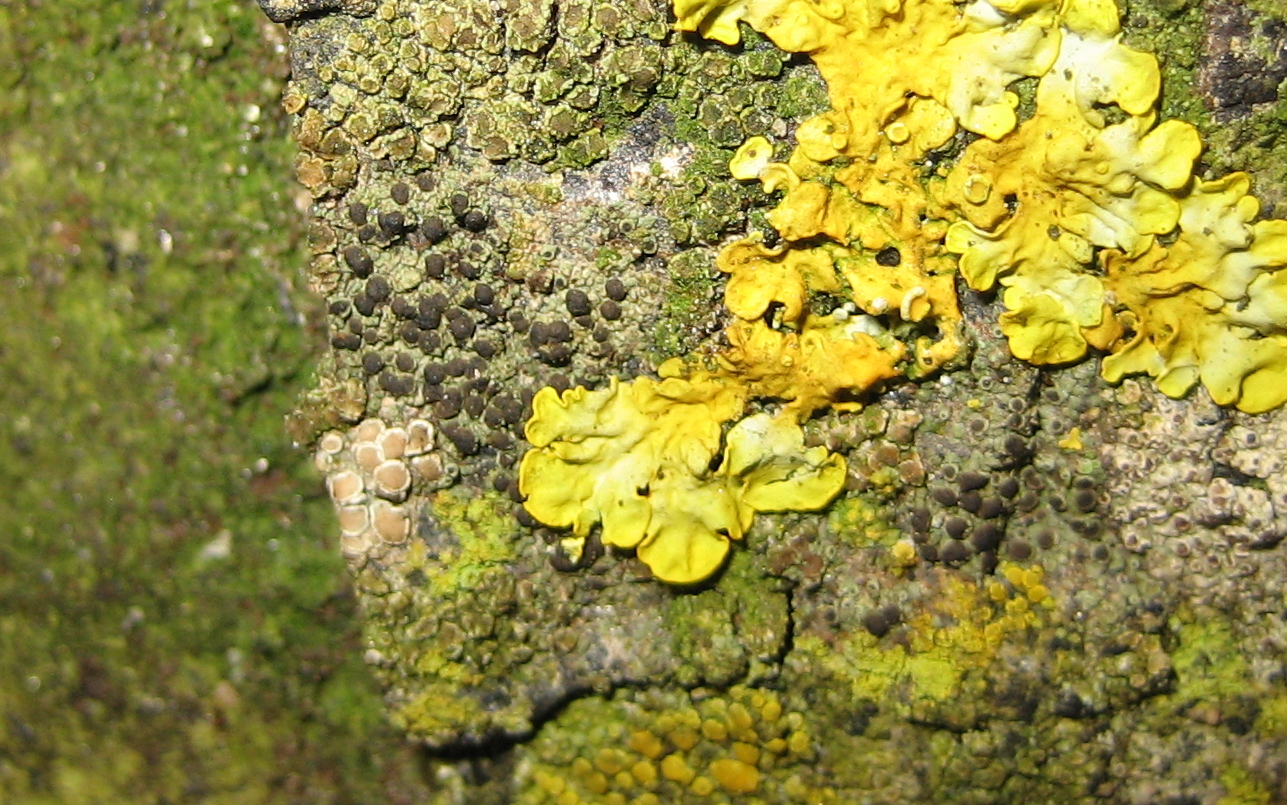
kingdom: Fungi
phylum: Ascomycota
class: Lecanoromycetes
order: Caliciales
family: Physciaceae
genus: Rinodina
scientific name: Rinodina oleae
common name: kyst-knaplav
